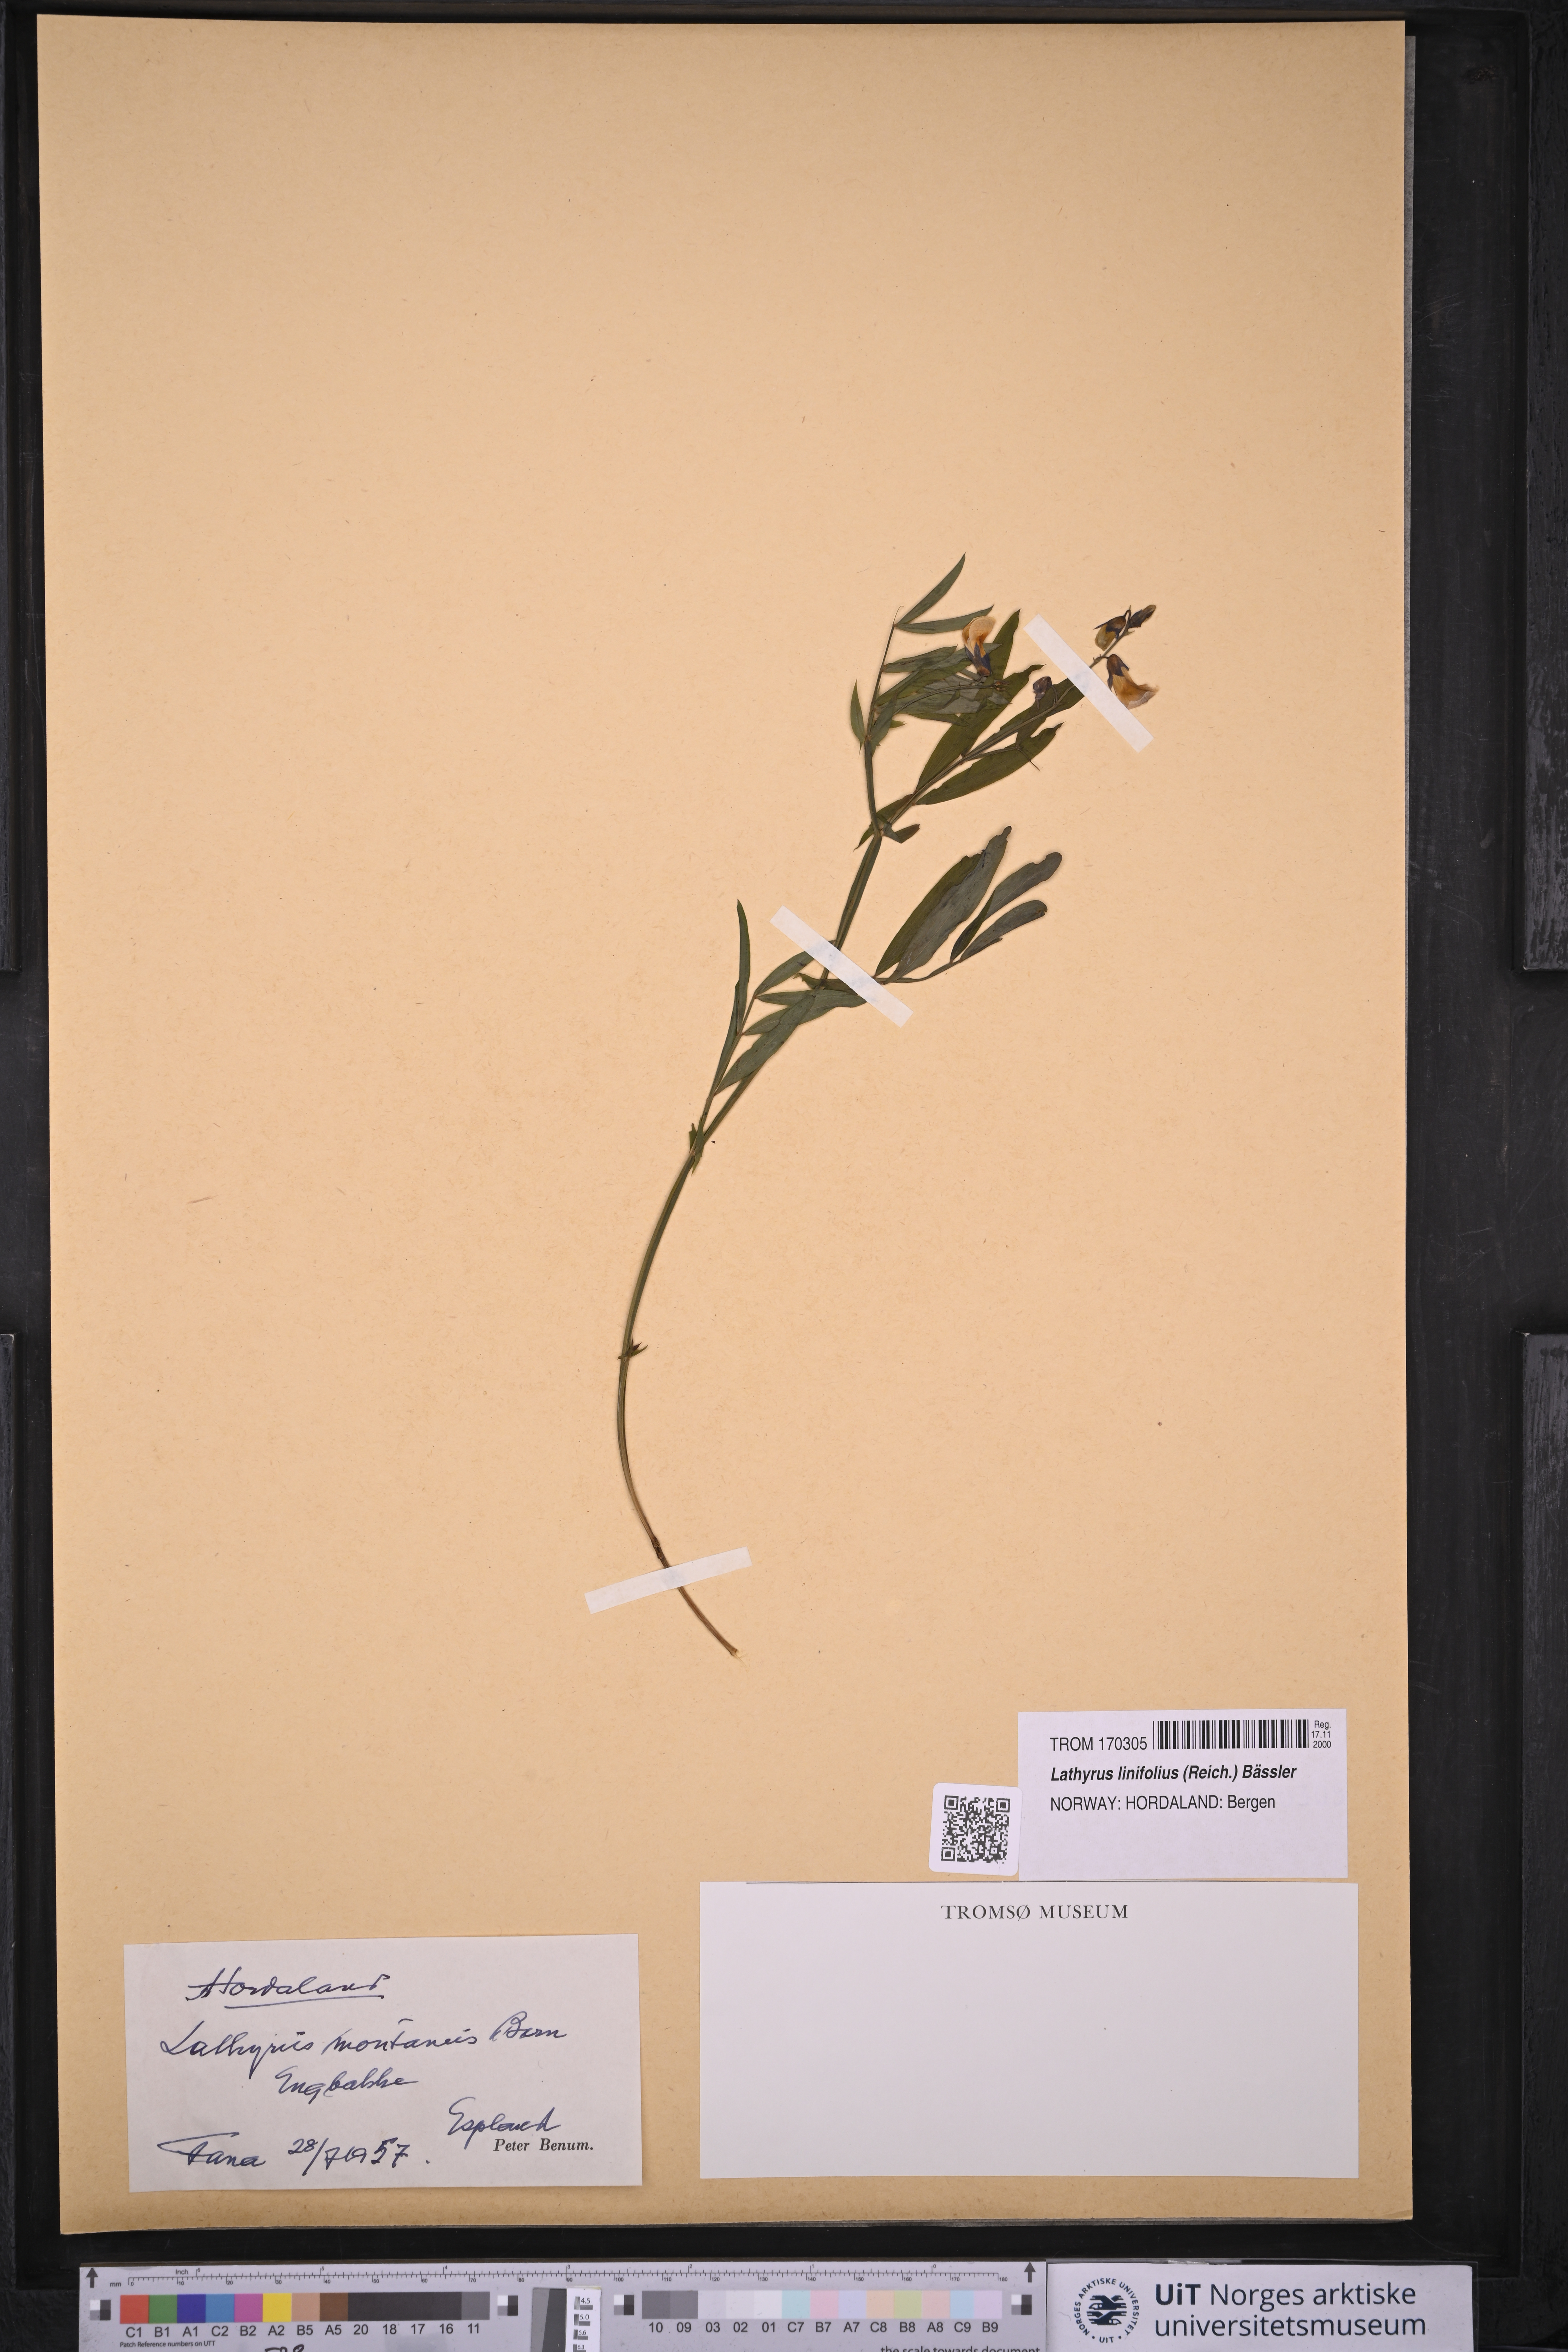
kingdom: Plantae
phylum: Tracheophyta
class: Magnoliopsida
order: Fabales
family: Fabaceae
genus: Lathyrus
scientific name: Lathyrus linifolius
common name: Bitter-vetch
